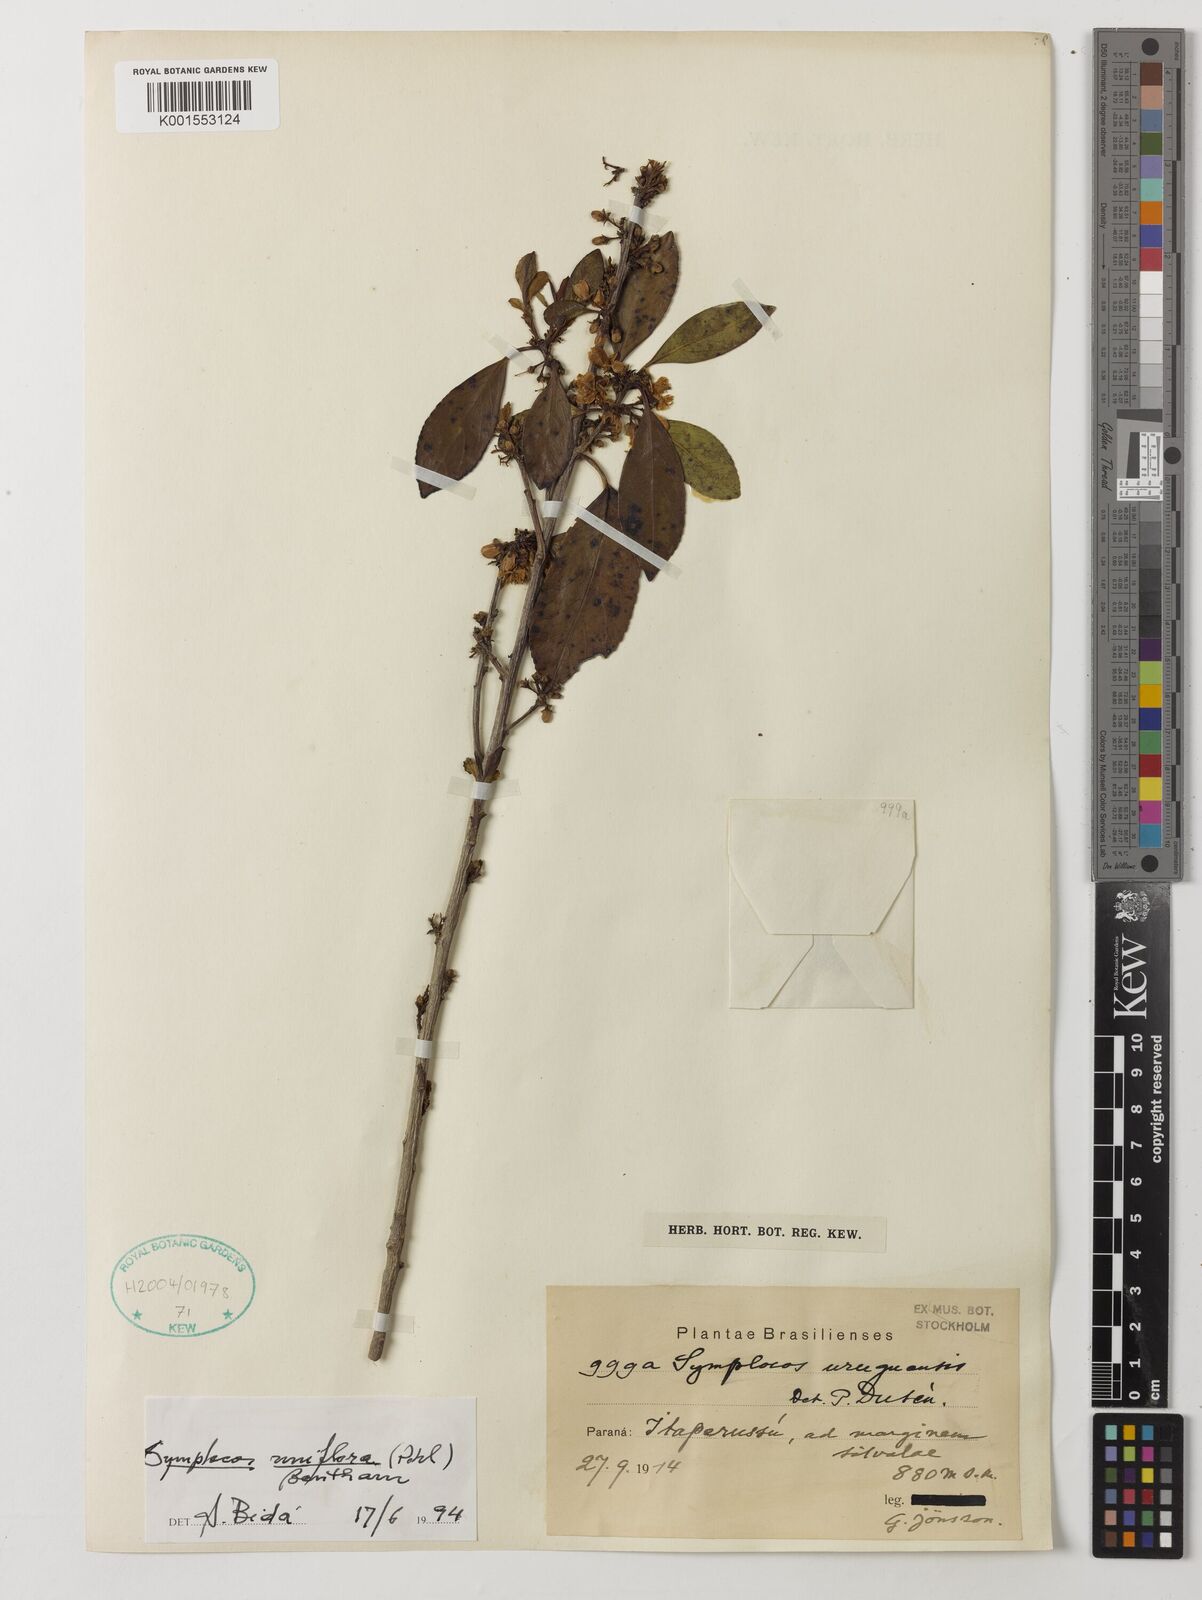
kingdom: Plantae
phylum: Tracheophyta
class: Magnoliopsida
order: Ericales
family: Symplocaceae
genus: Symplocos
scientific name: Symplocos uniflora
